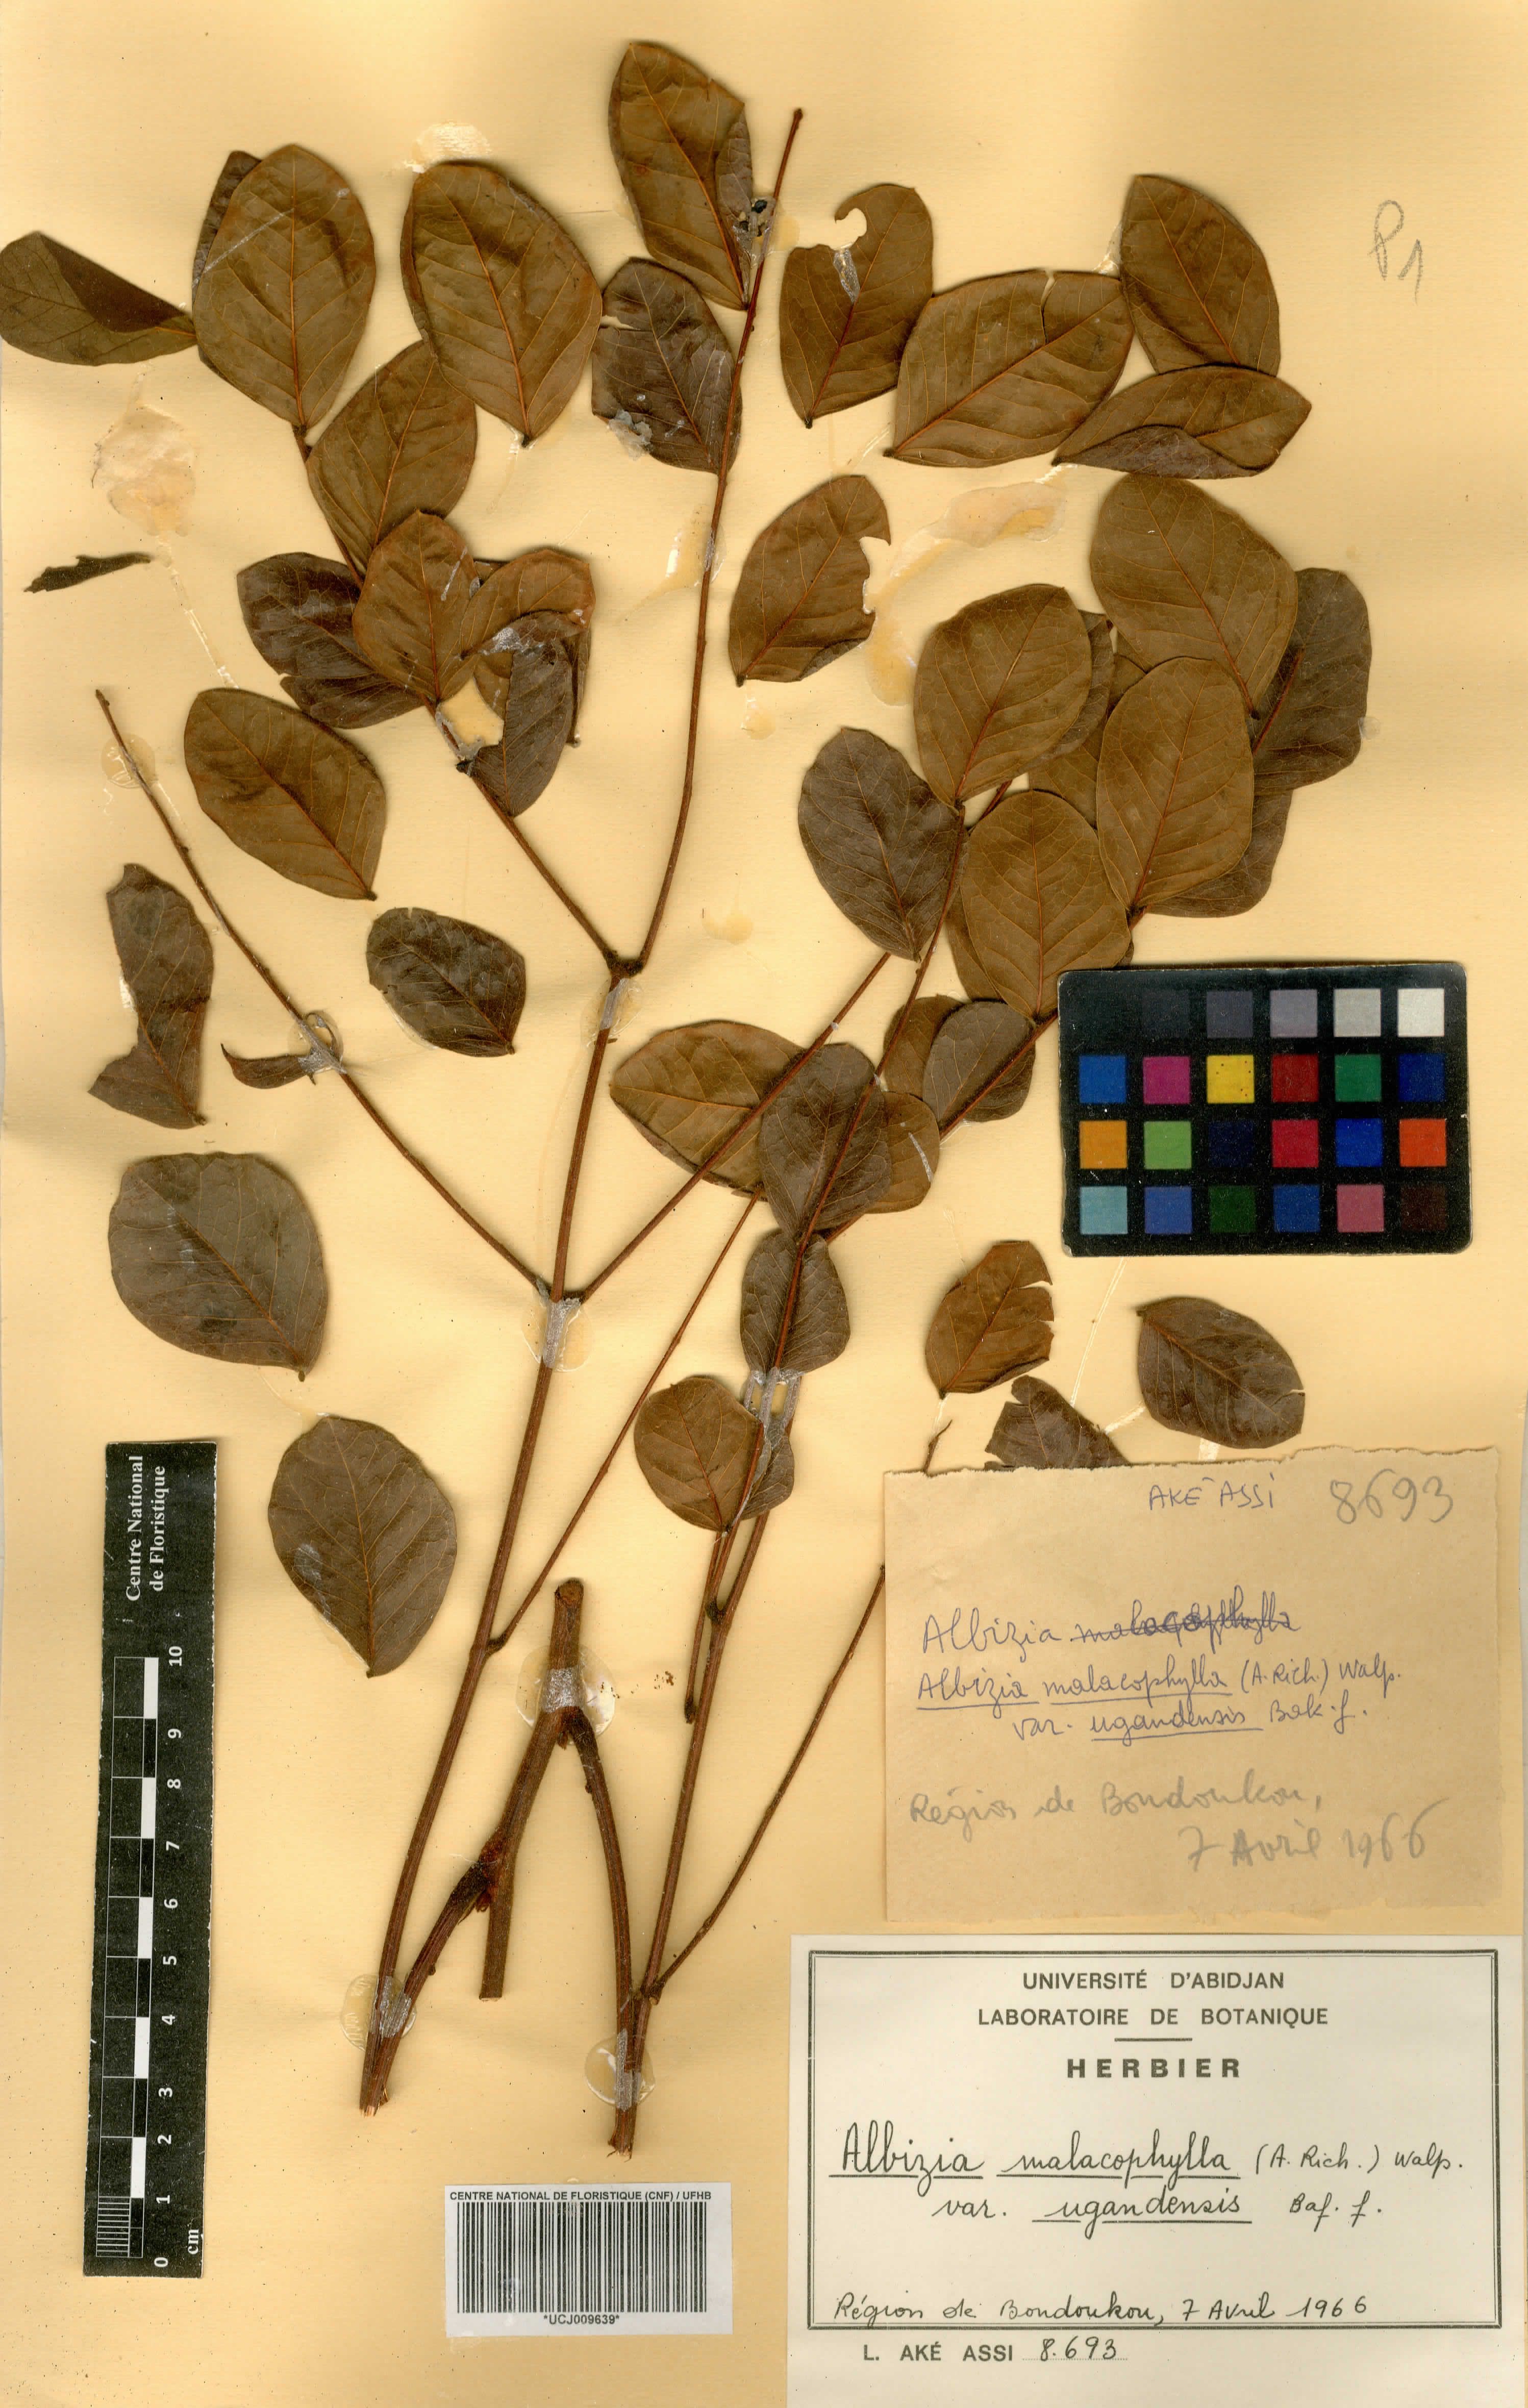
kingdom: Plantae
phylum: Tracheophyta
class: Magnoliopsida
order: Fabales
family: Fabaceae
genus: Albizia
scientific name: Albizia malacophylla
